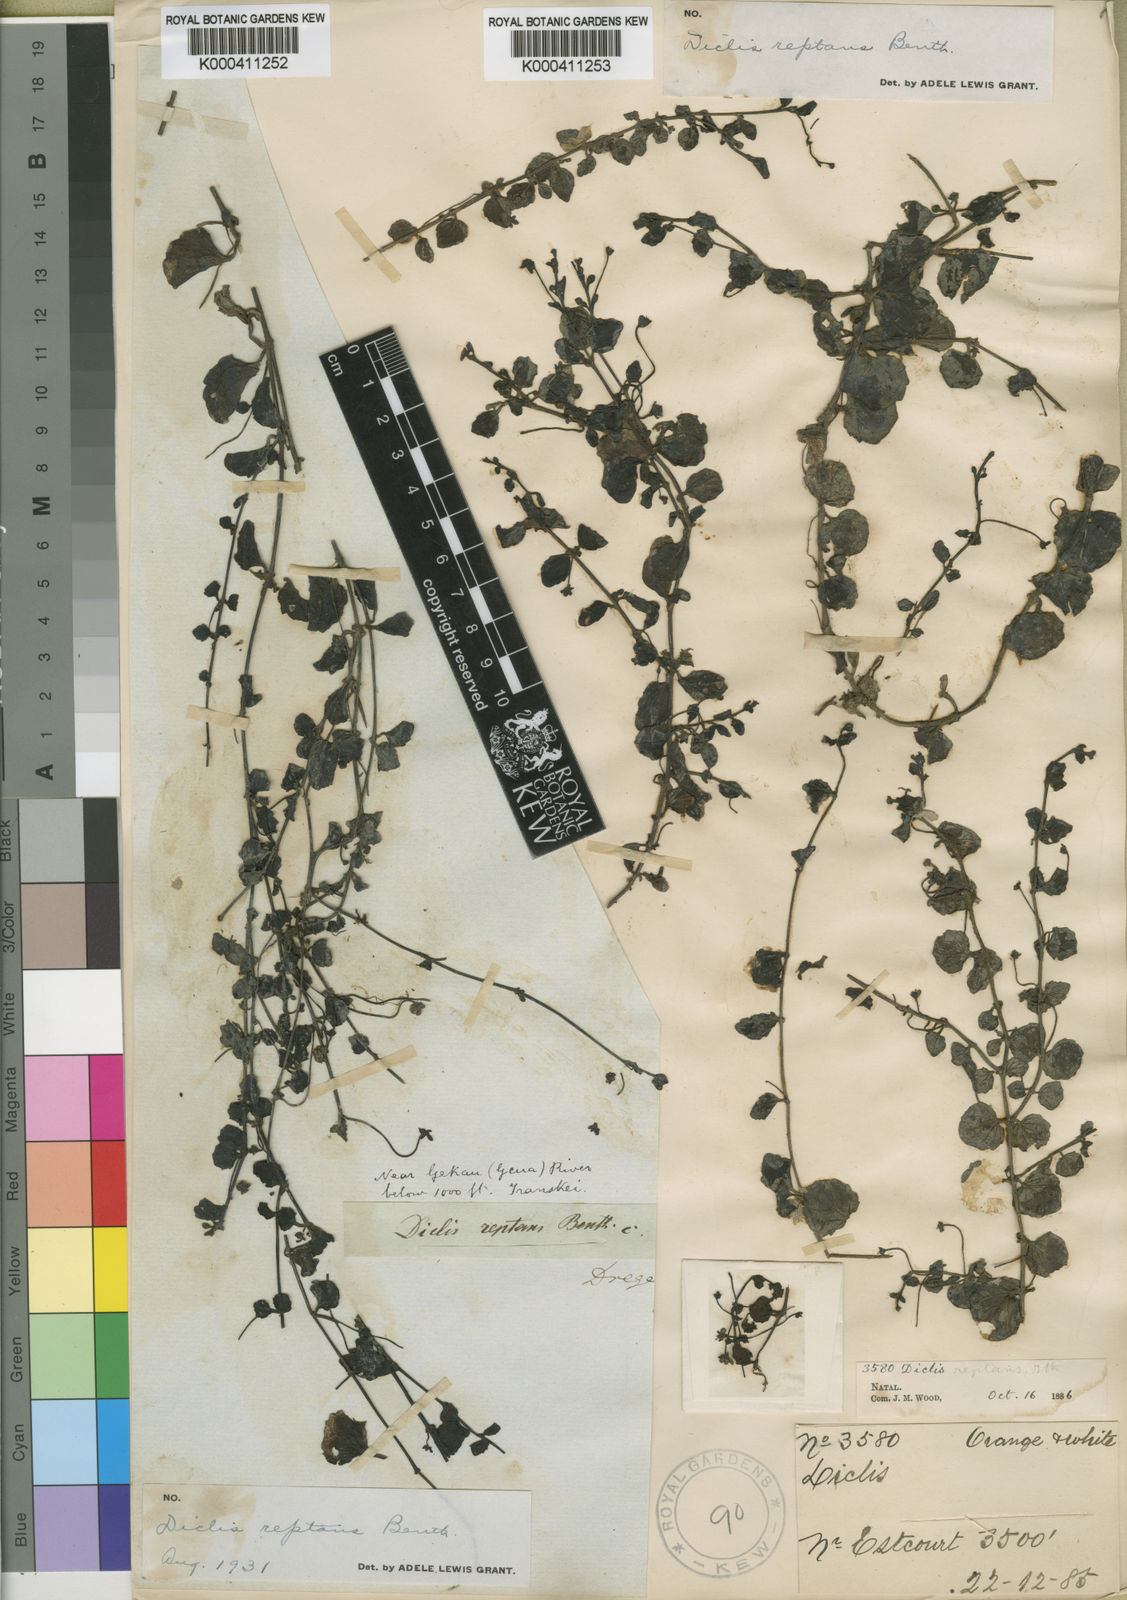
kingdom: Plantae
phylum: Tracheophyta
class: Magnoliopsida
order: Lamiales
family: Scrophulariaceae
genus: Diclis
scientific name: Diclis reptans
